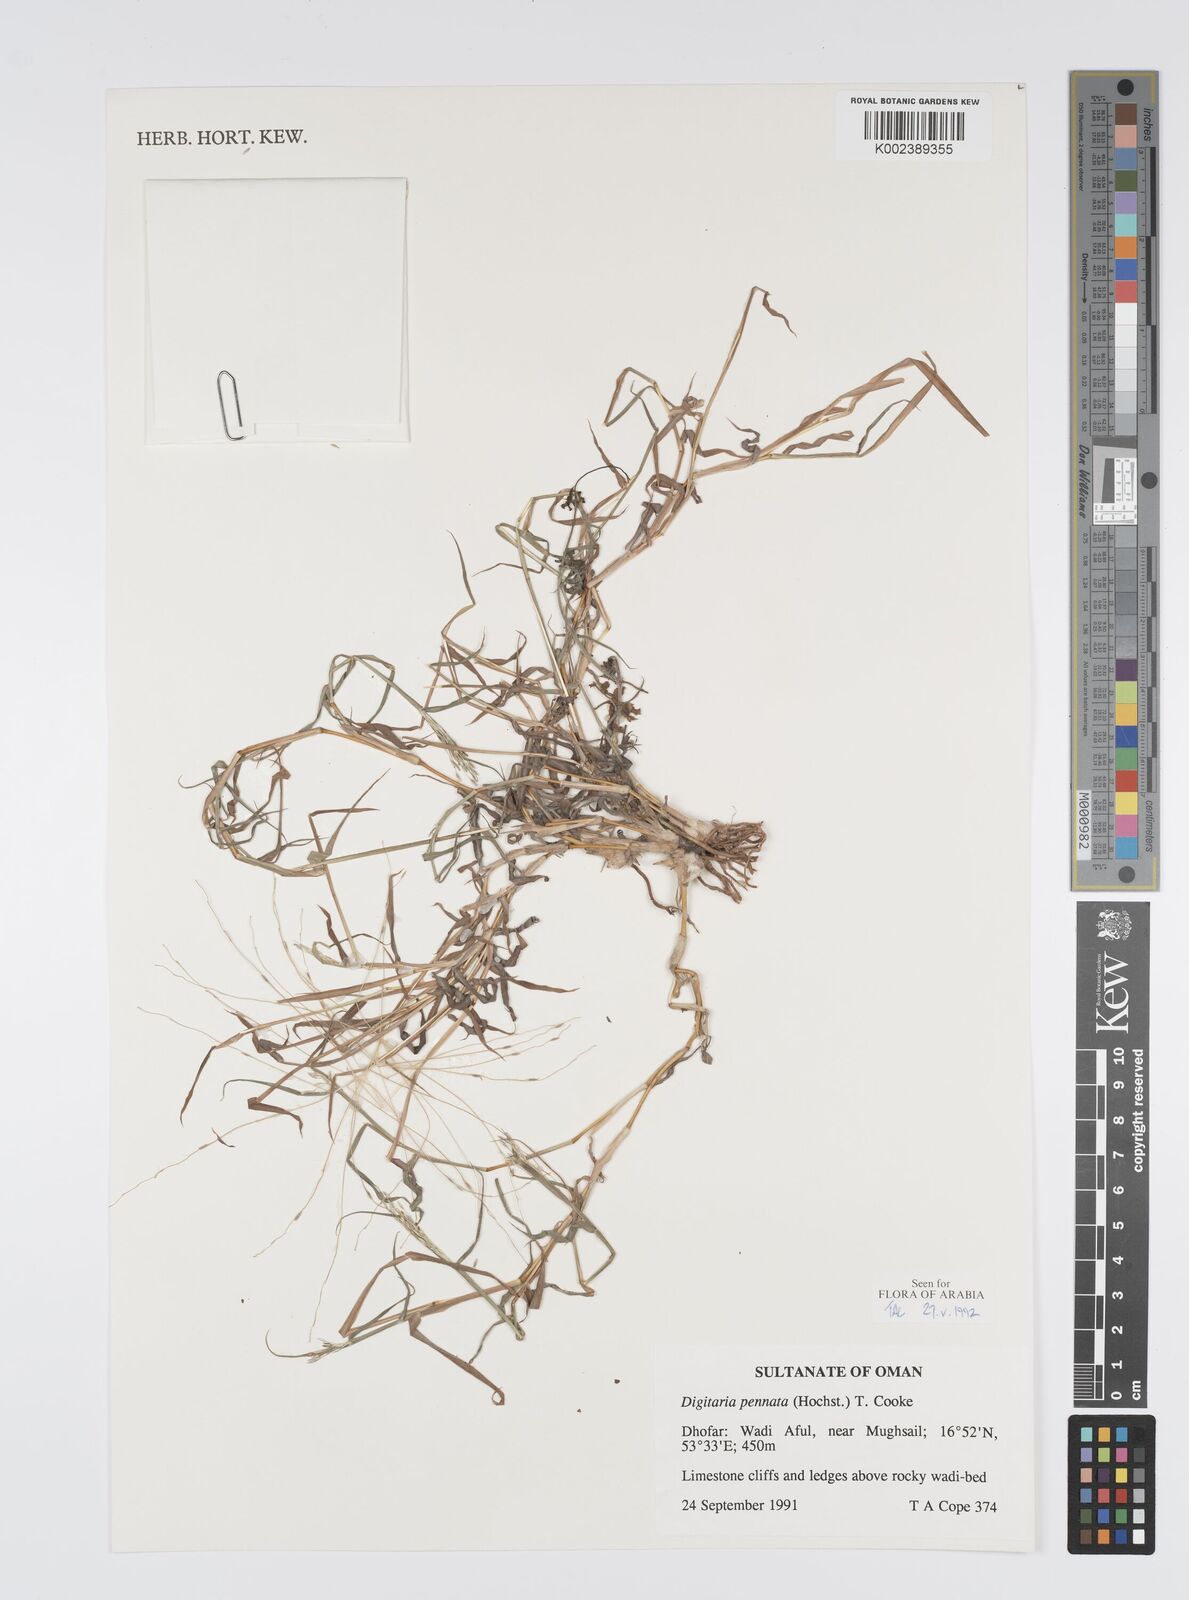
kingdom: Plantae
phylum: Tracheophyta
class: Liliopsida
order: Poales
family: Poaceae
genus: Digitaria
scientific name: Digitaria pennata
